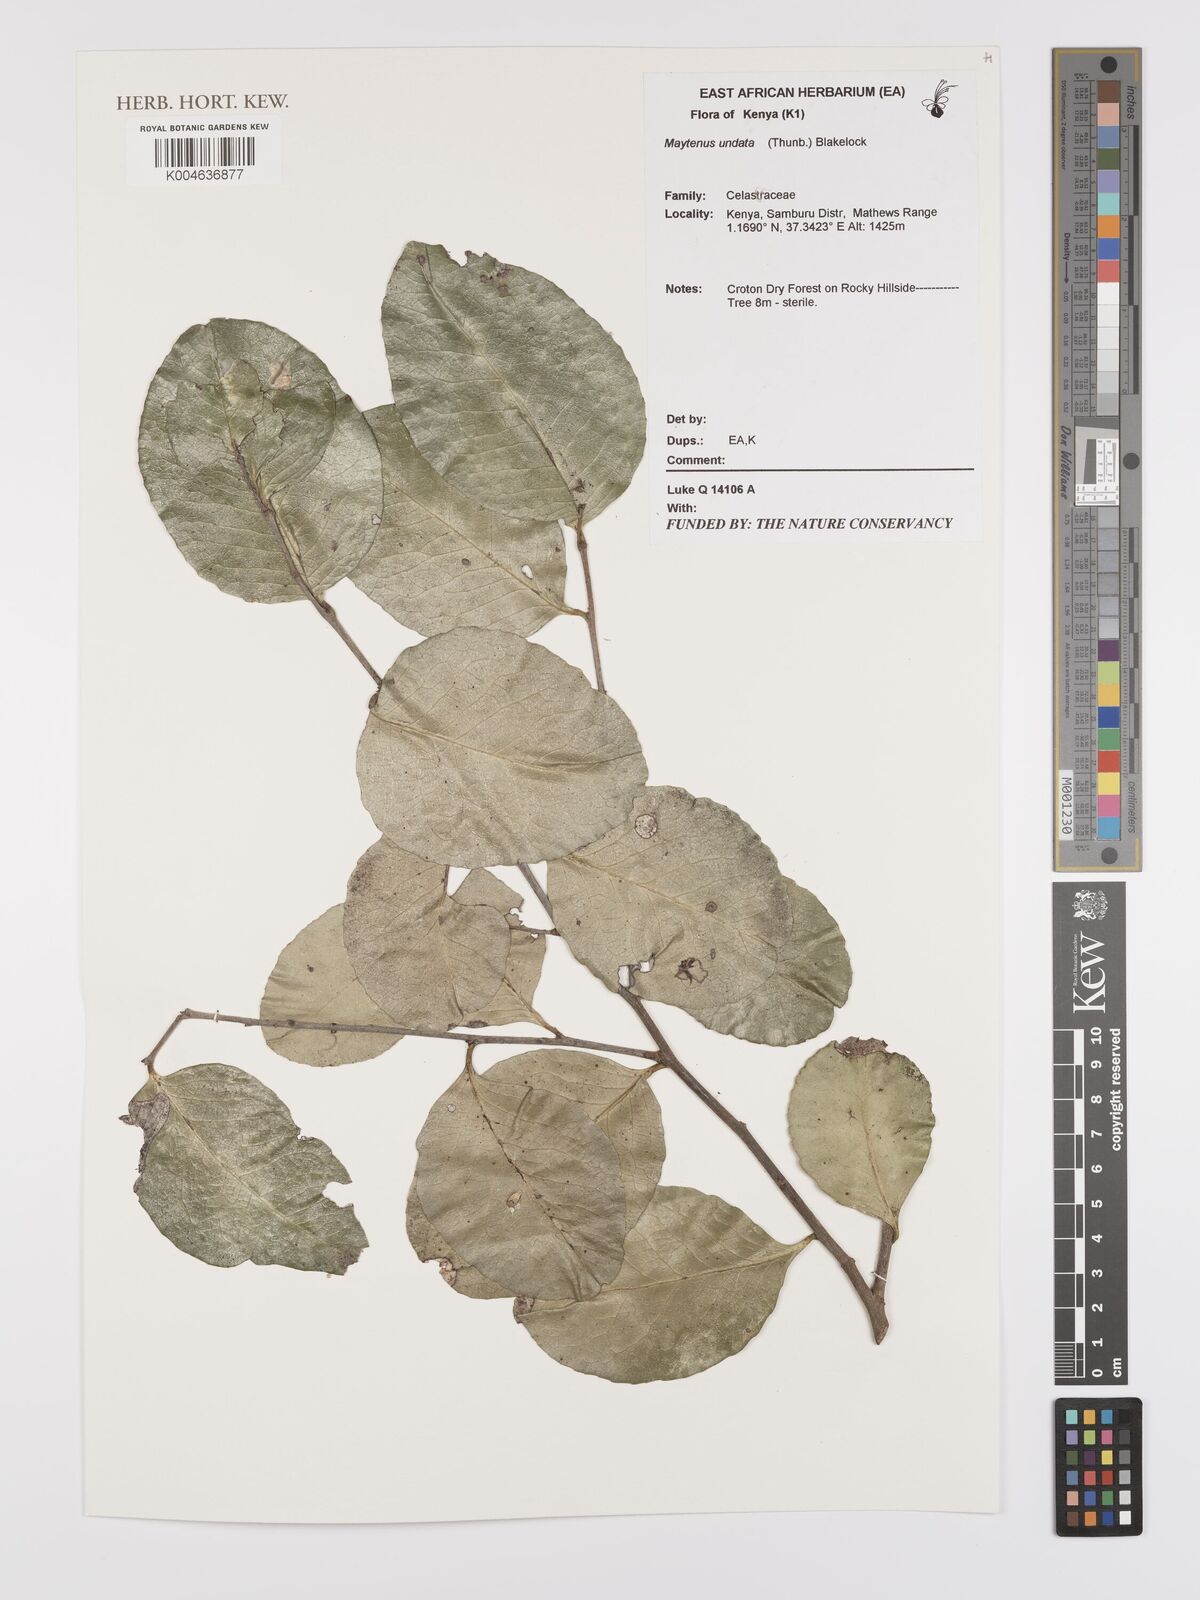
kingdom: Plantae
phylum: Tracheophyta
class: Magnoliopsida
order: Celastrales
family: Celastraceae
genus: Gymnosporia
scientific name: Gymnosporia undata
